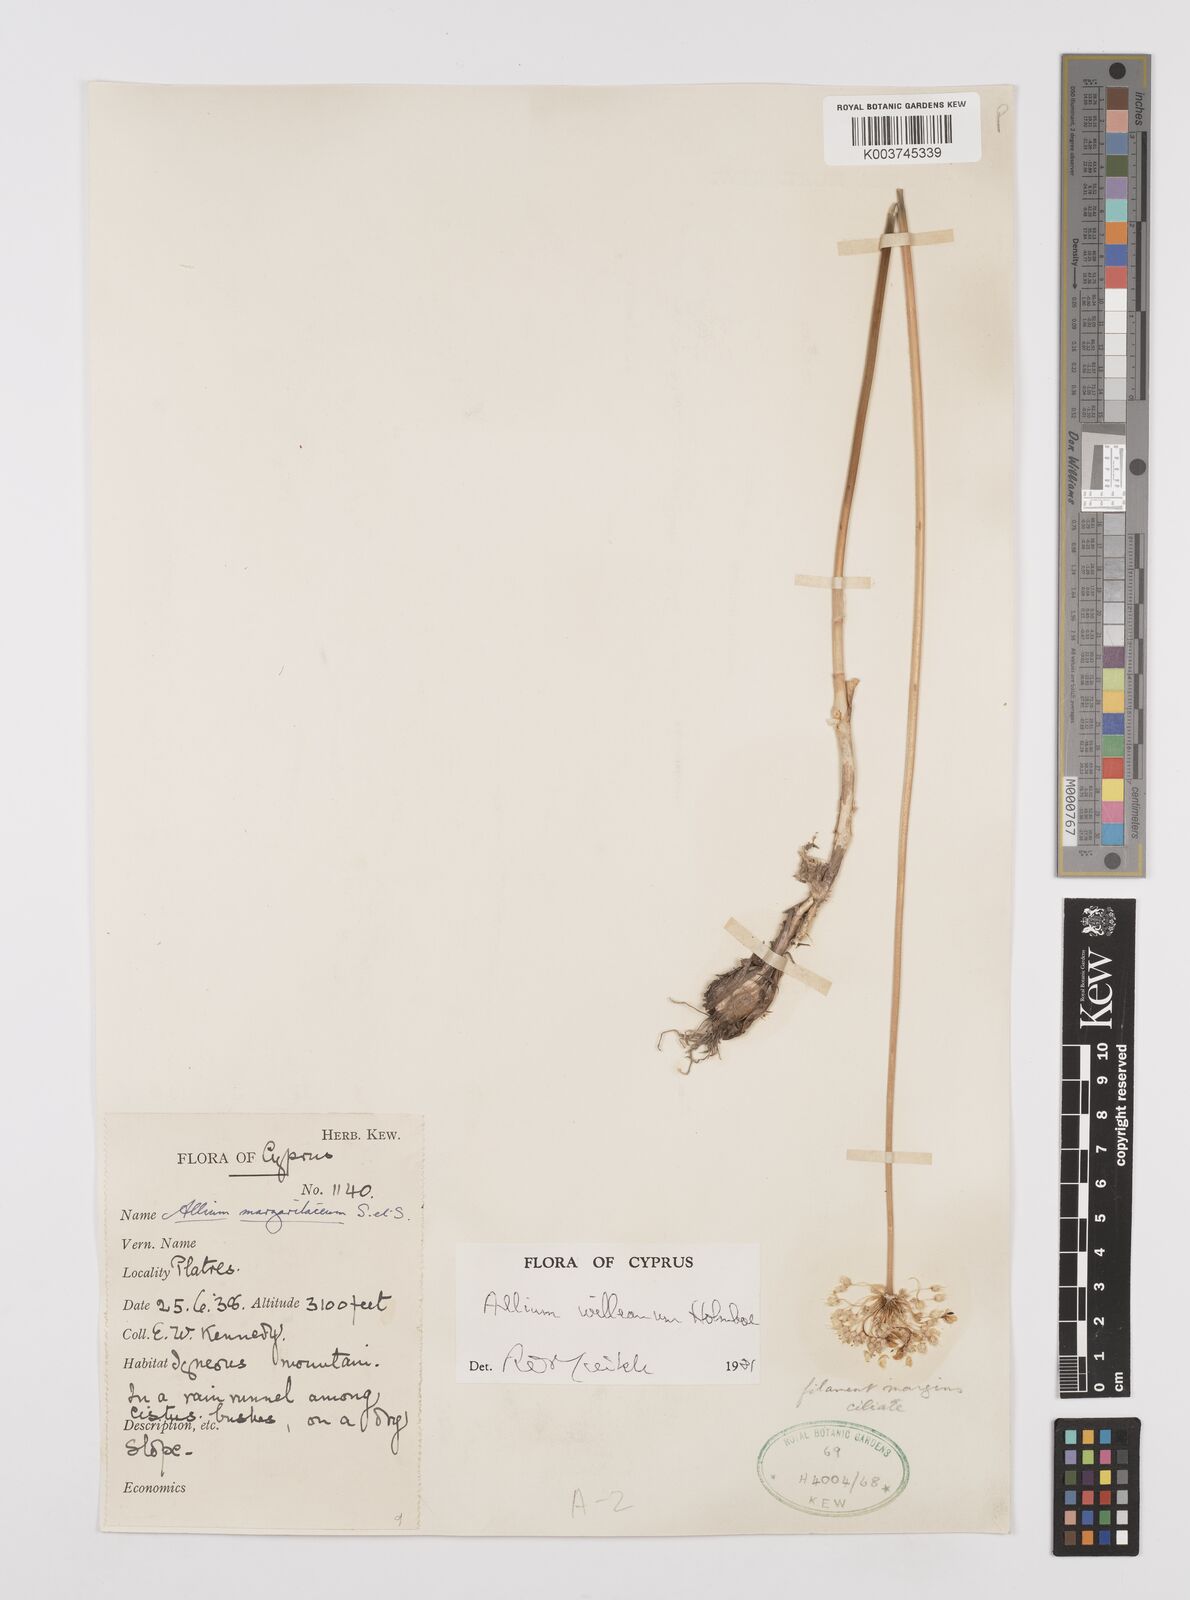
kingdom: Plantae
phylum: Tracheophyta
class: Liliopsida
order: Asparagales
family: Amaryllidaceae
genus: Allium
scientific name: Allium willeanum
